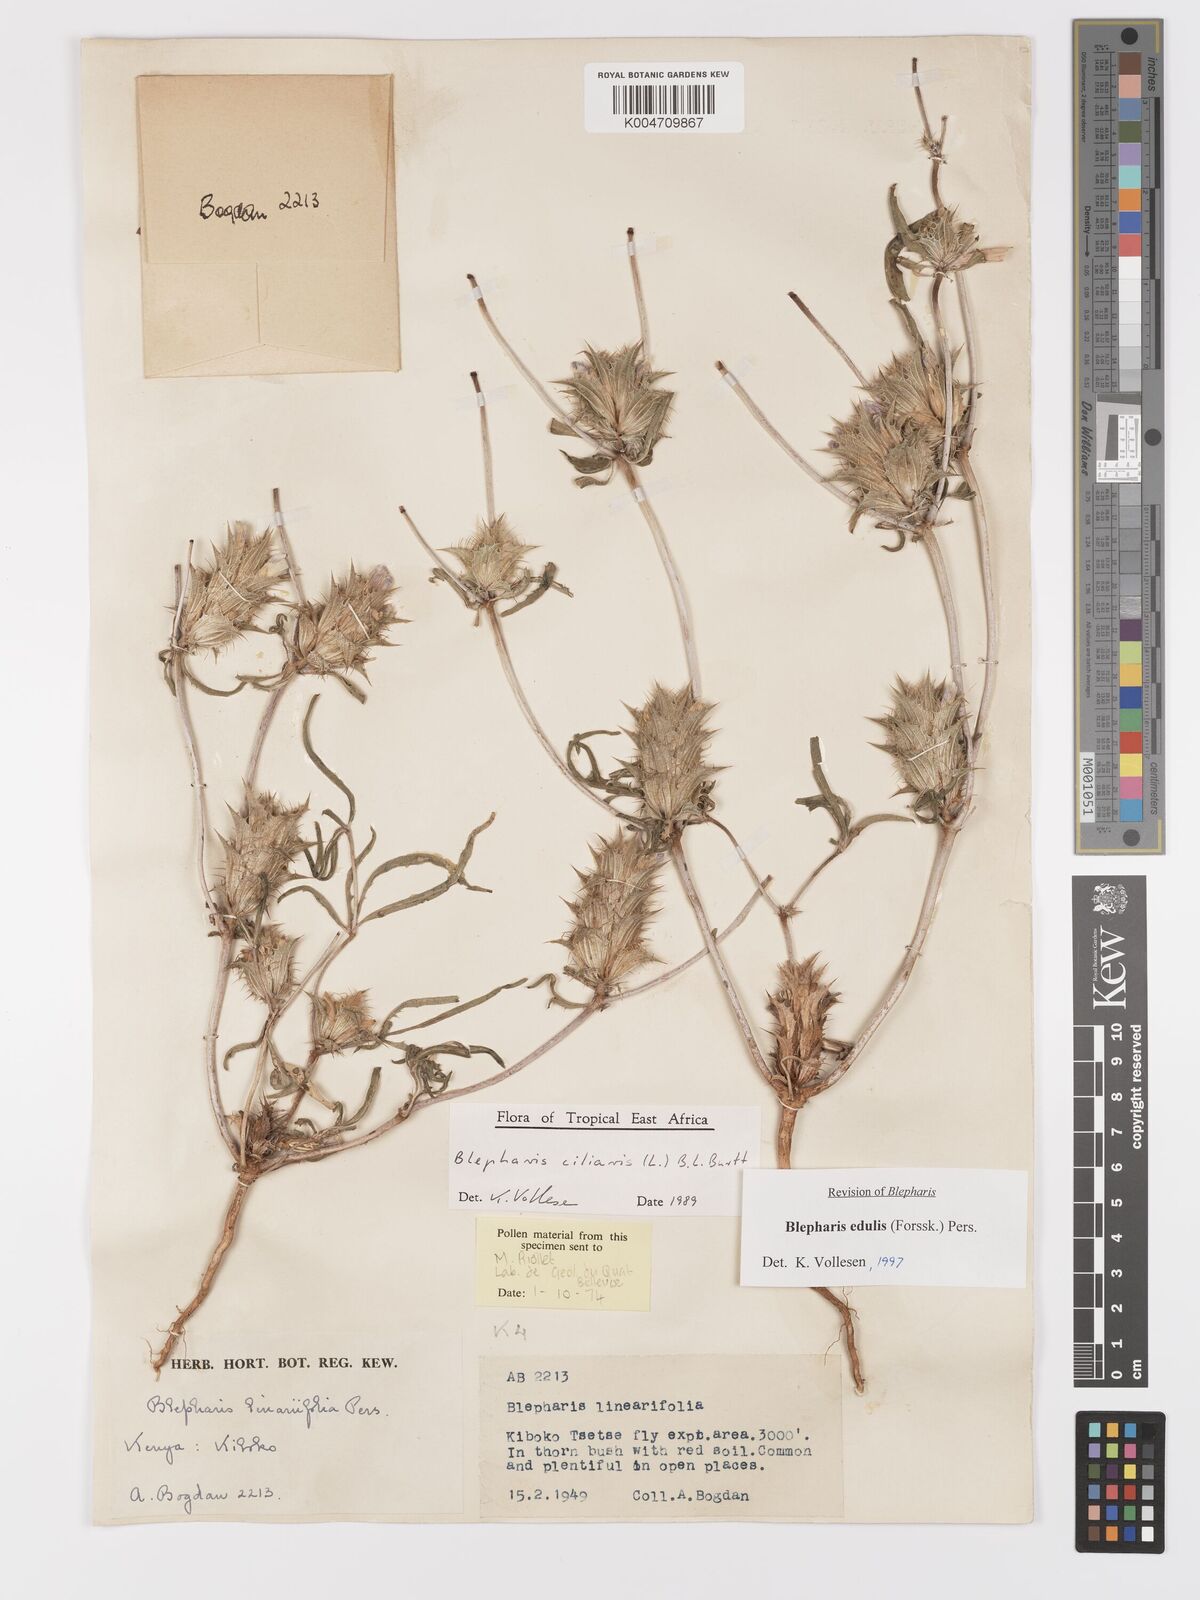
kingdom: Plantae
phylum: Tracheophyta
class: Magnoliopsida
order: Lamiales
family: Acanthaceae
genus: Blepharis
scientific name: Blepharis edulis
